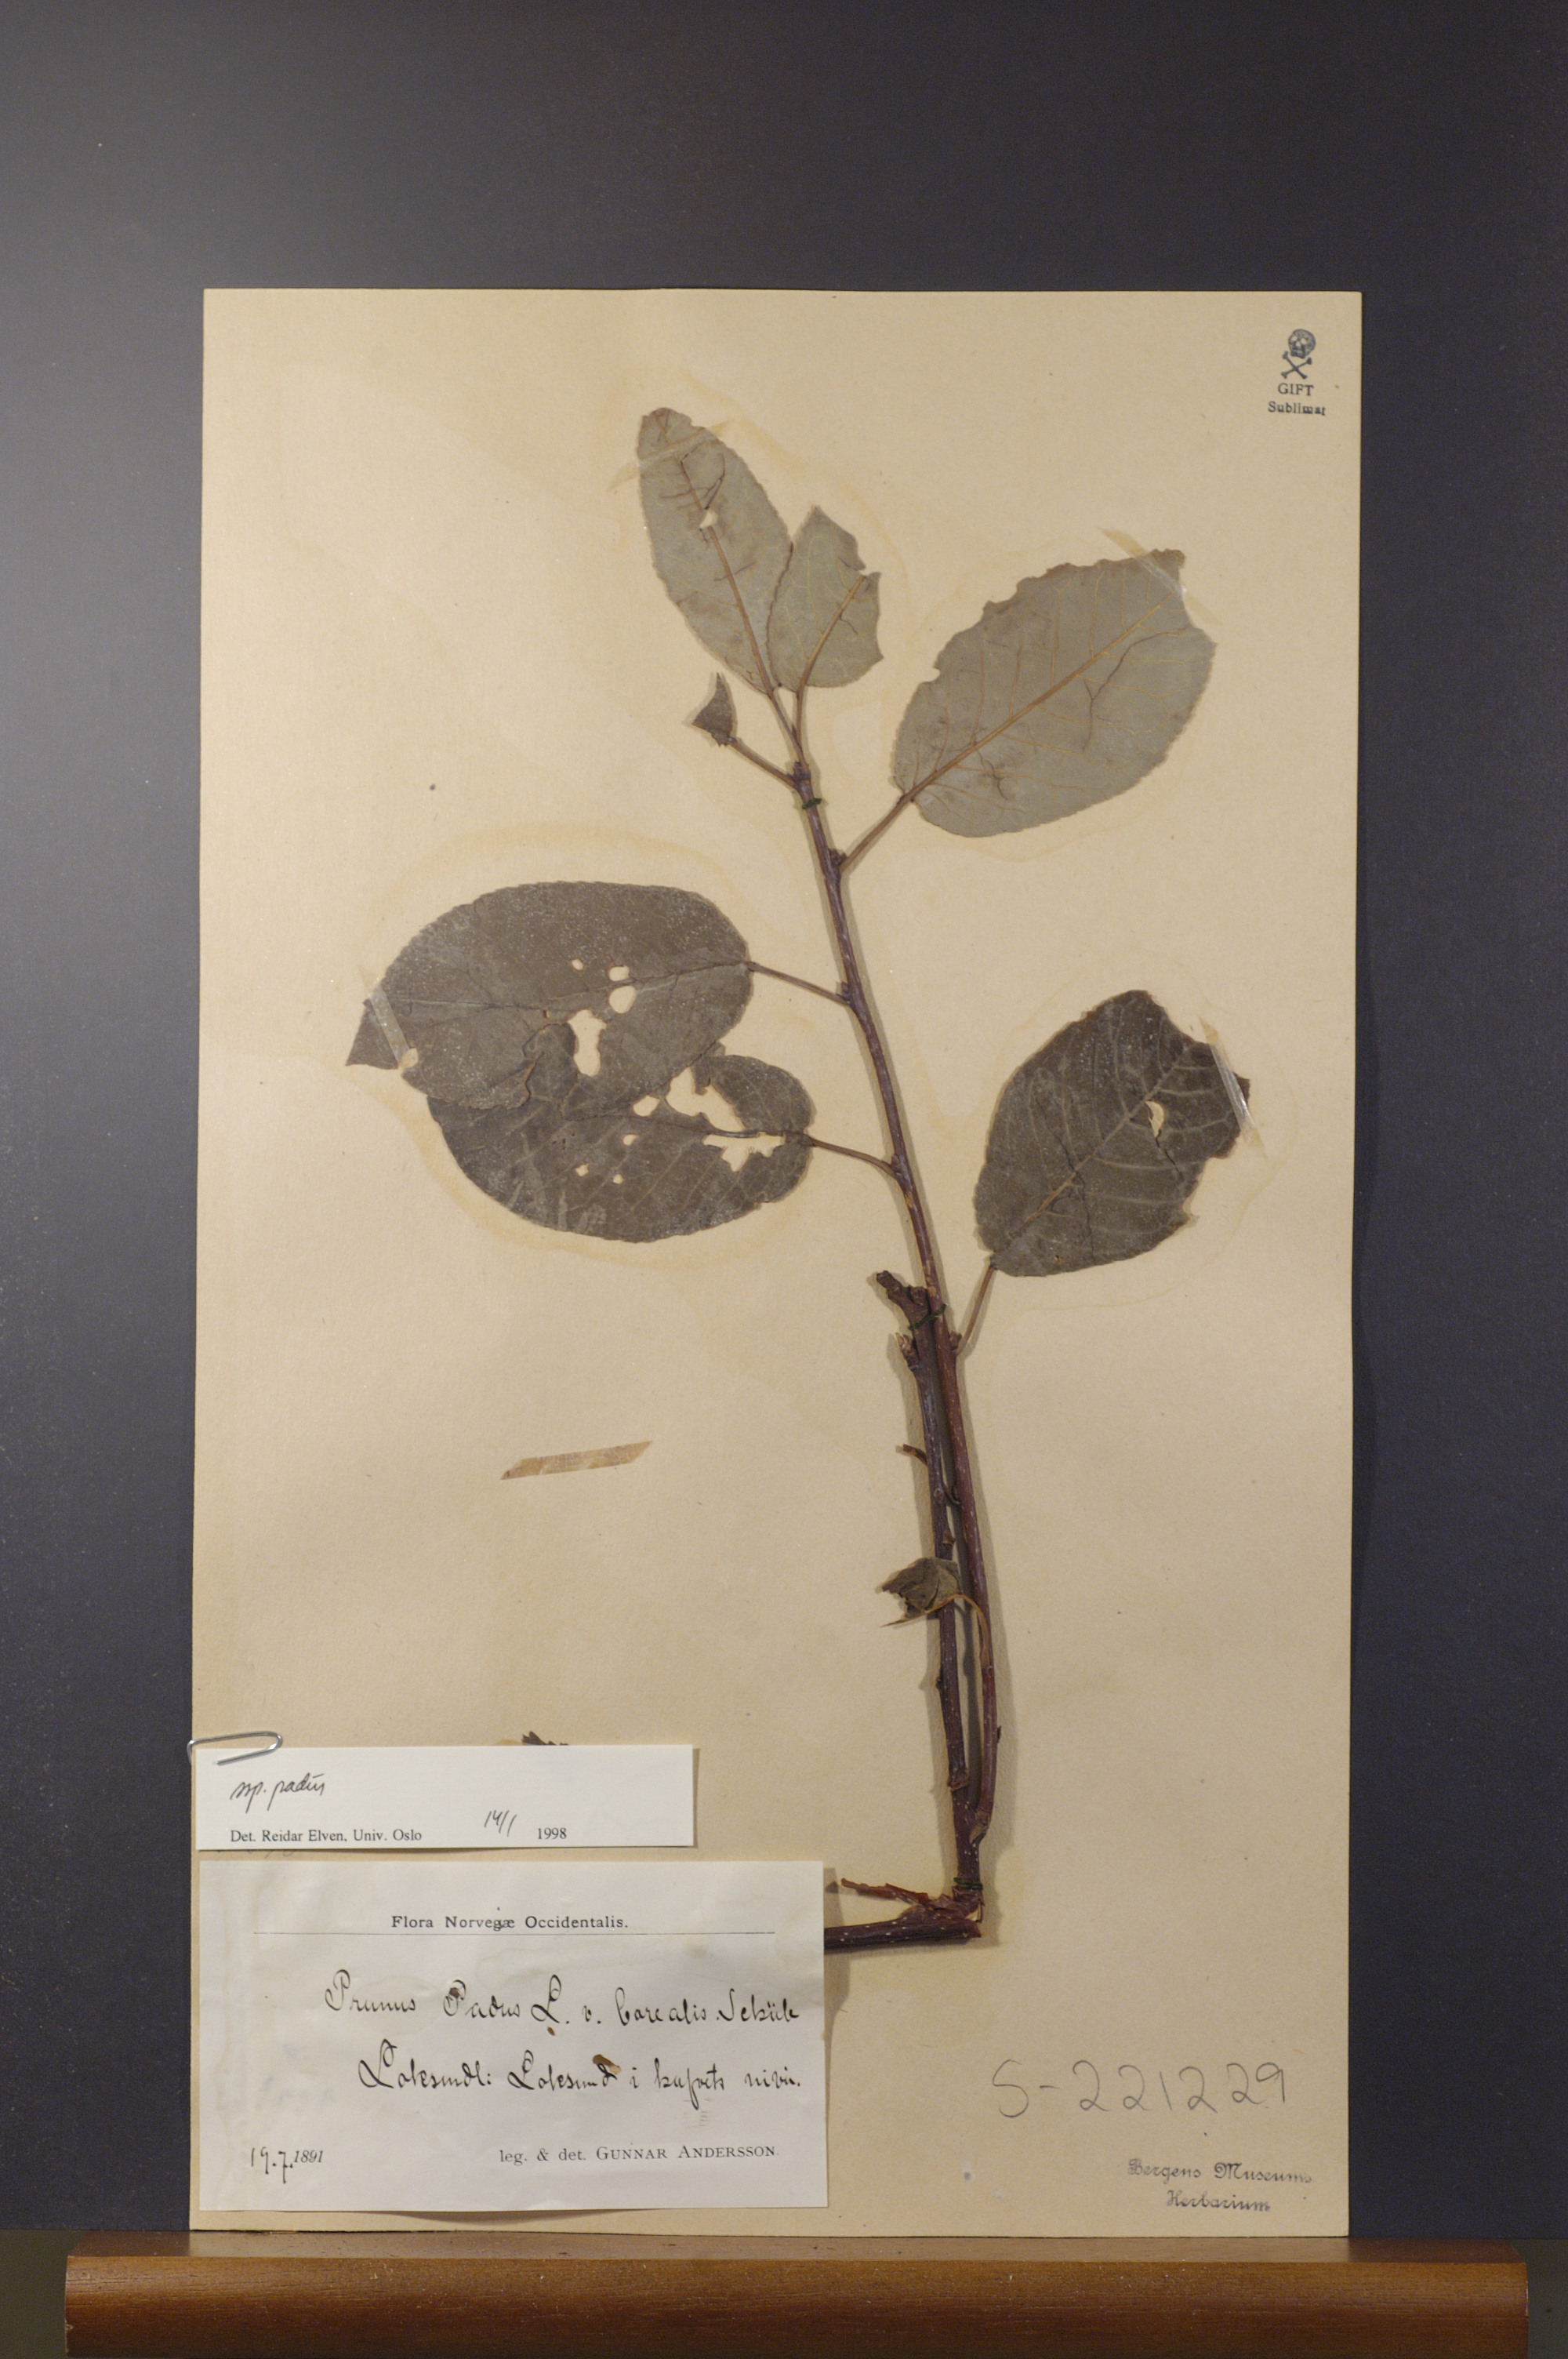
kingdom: Plantae
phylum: Tracheophyta
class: Magnoliopsida
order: Rosales
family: Rosaceae
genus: Prunus
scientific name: Prunus padus
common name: Bird cherry
